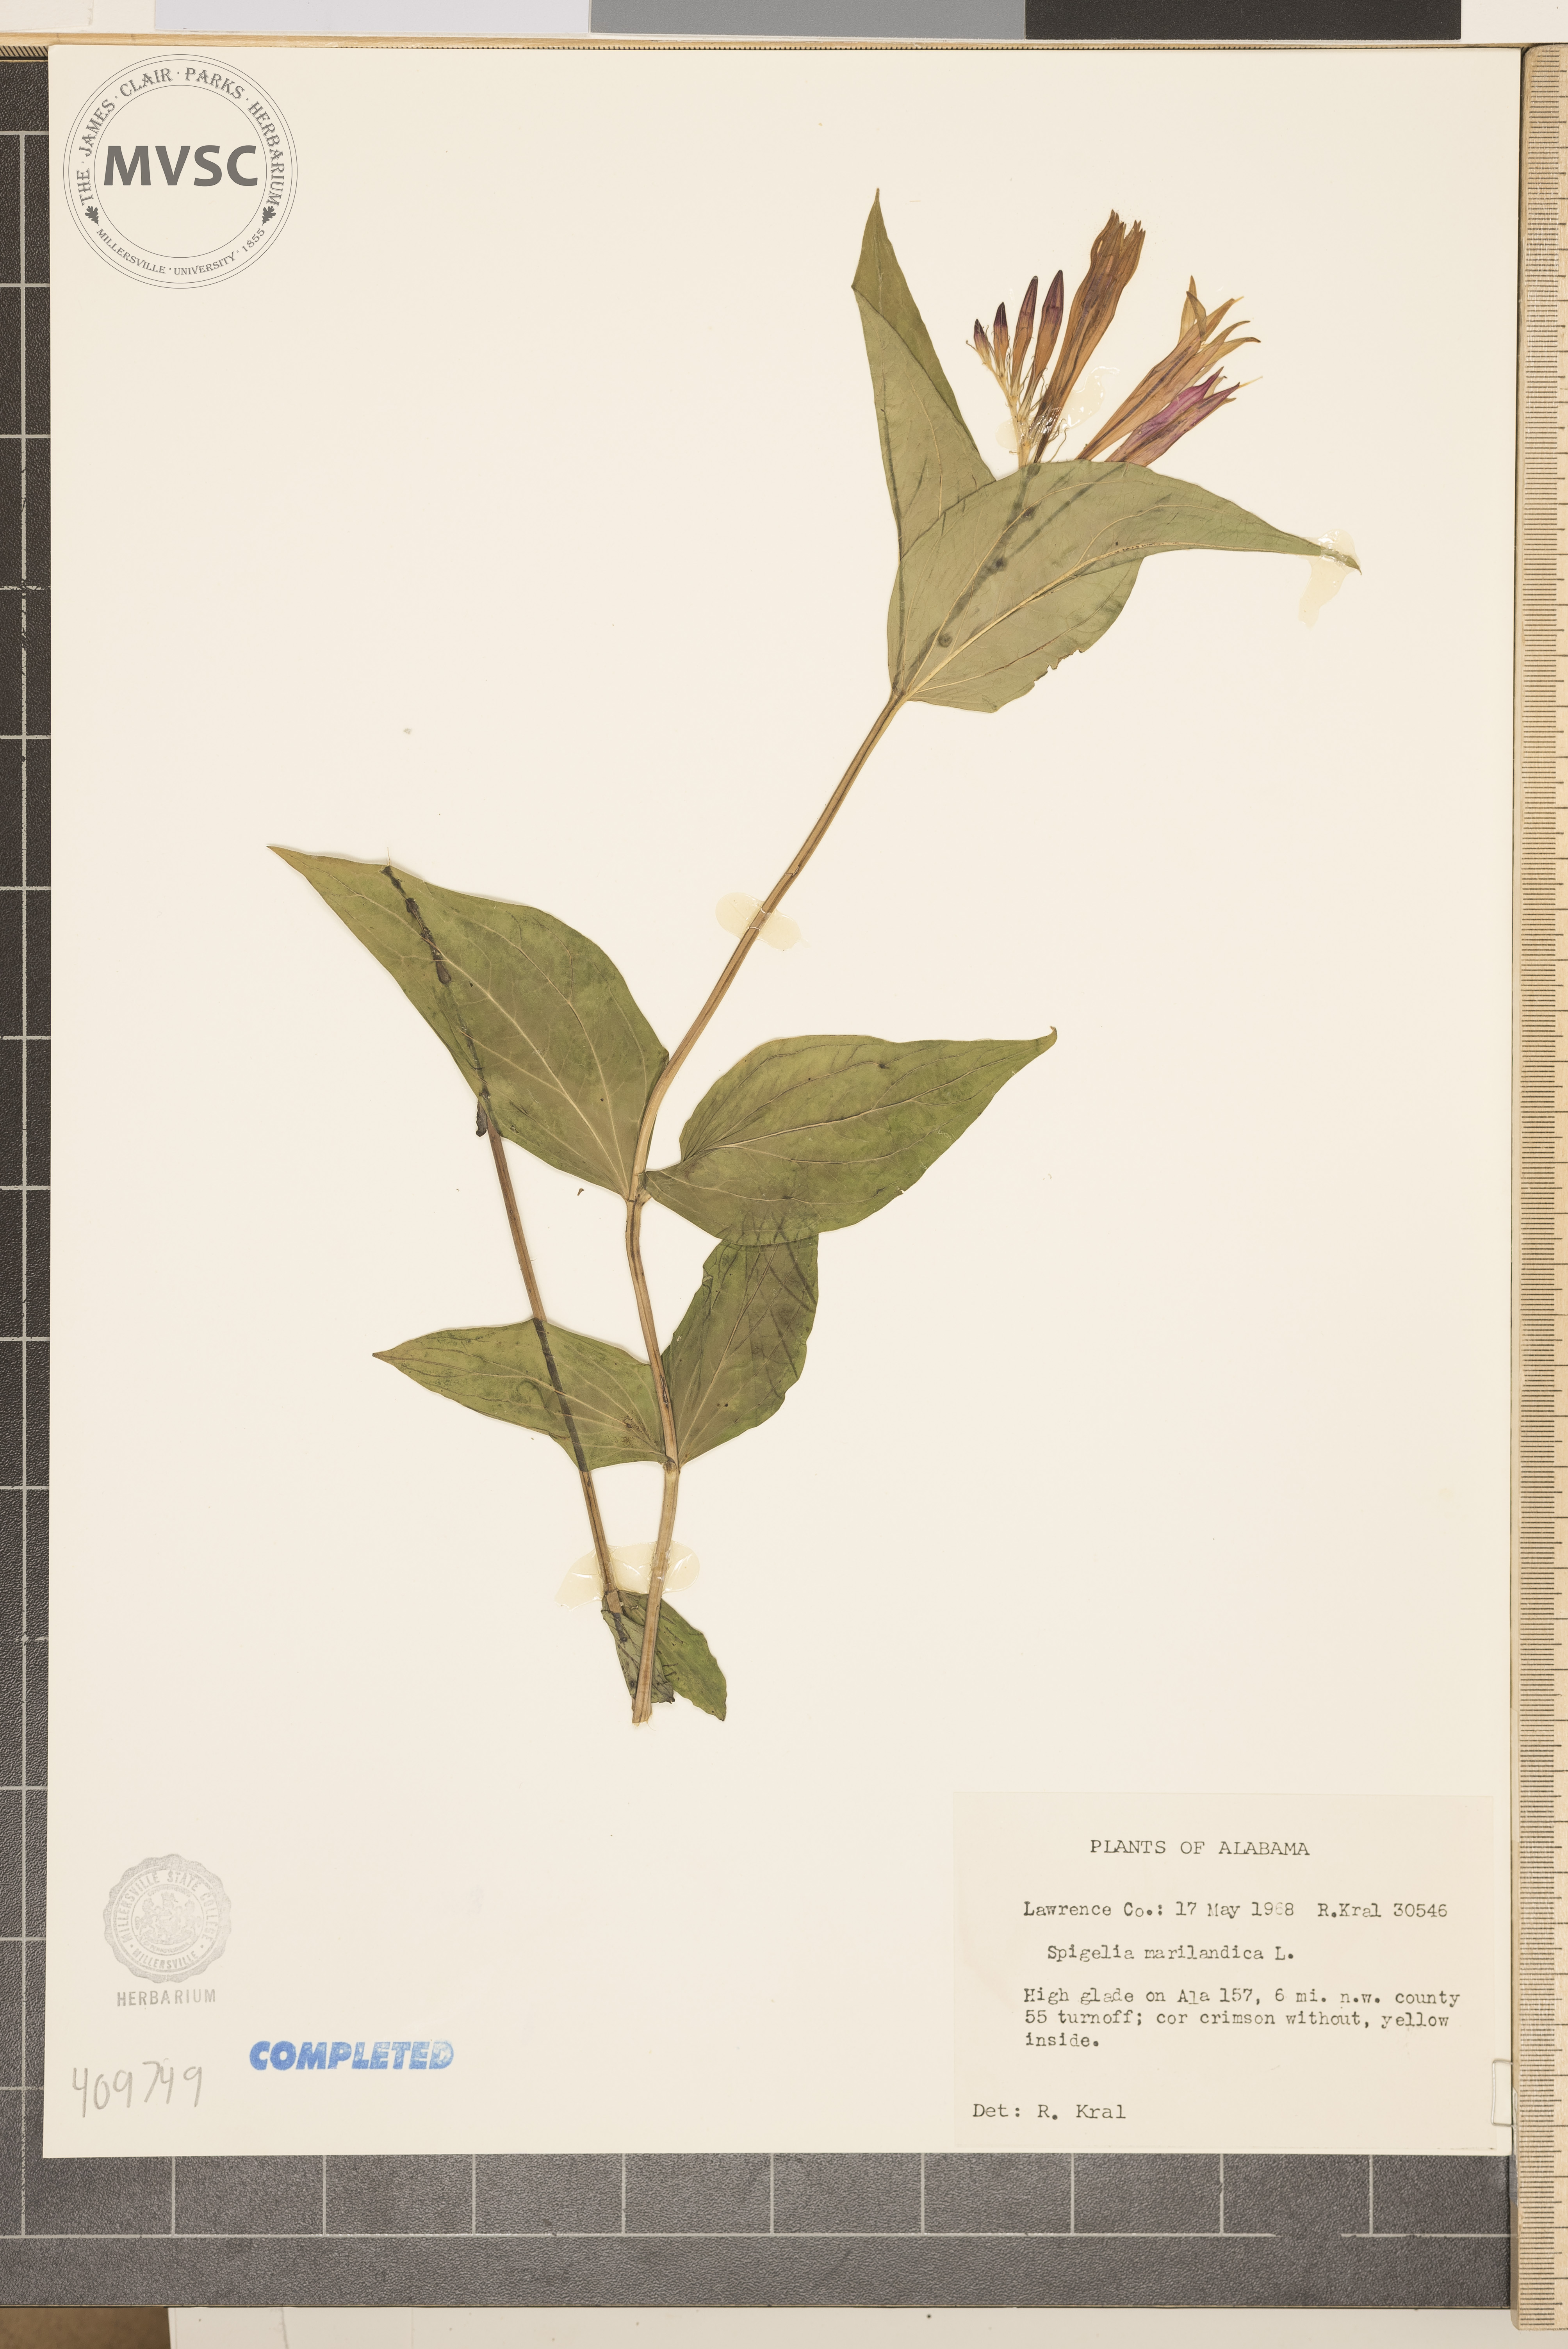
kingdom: Plantae
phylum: Tracheophyta
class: Magnoliopsida
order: Gentianales
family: Loganiaceae
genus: Spigelia
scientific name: Spigelia marilandica
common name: Indian-pink
